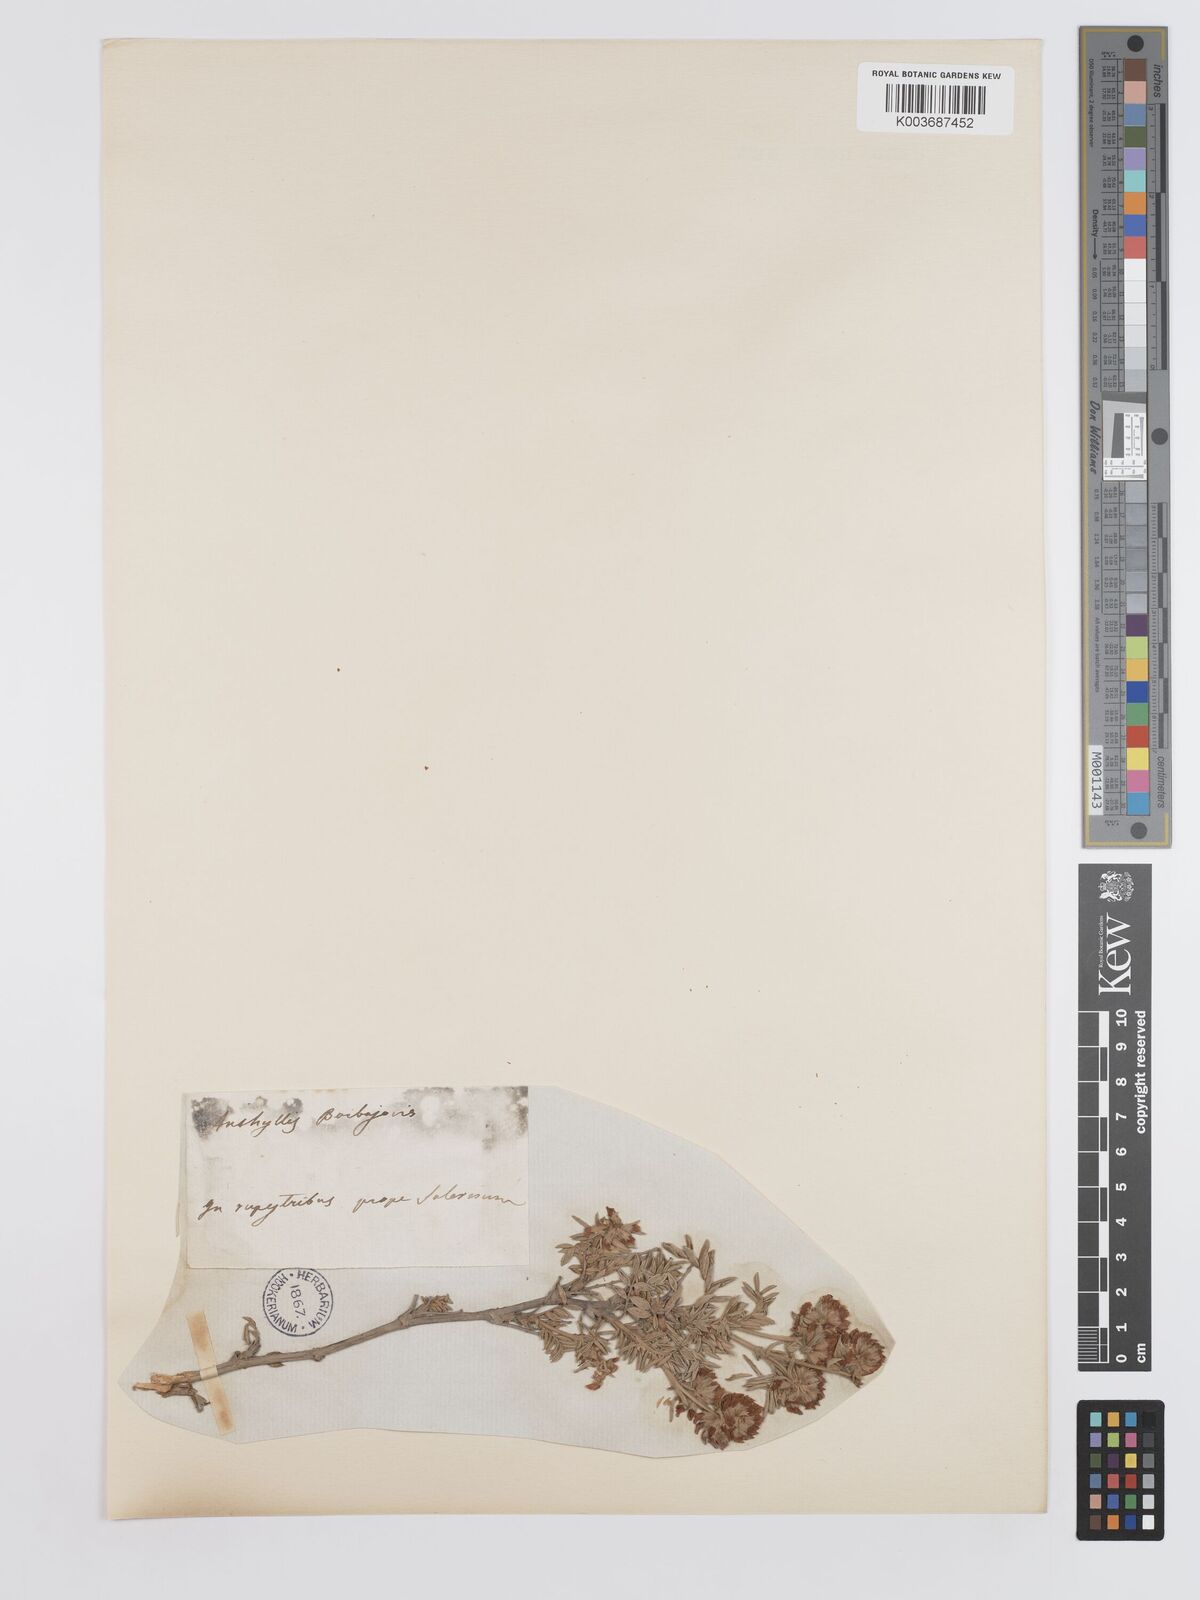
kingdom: Plantae
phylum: Tracheophyta
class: Magnoliopsida
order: Fabales
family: Fabaceae
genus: Anthyllis
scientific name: Anthyllis barba-jovis
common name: Jupiter's-beard
